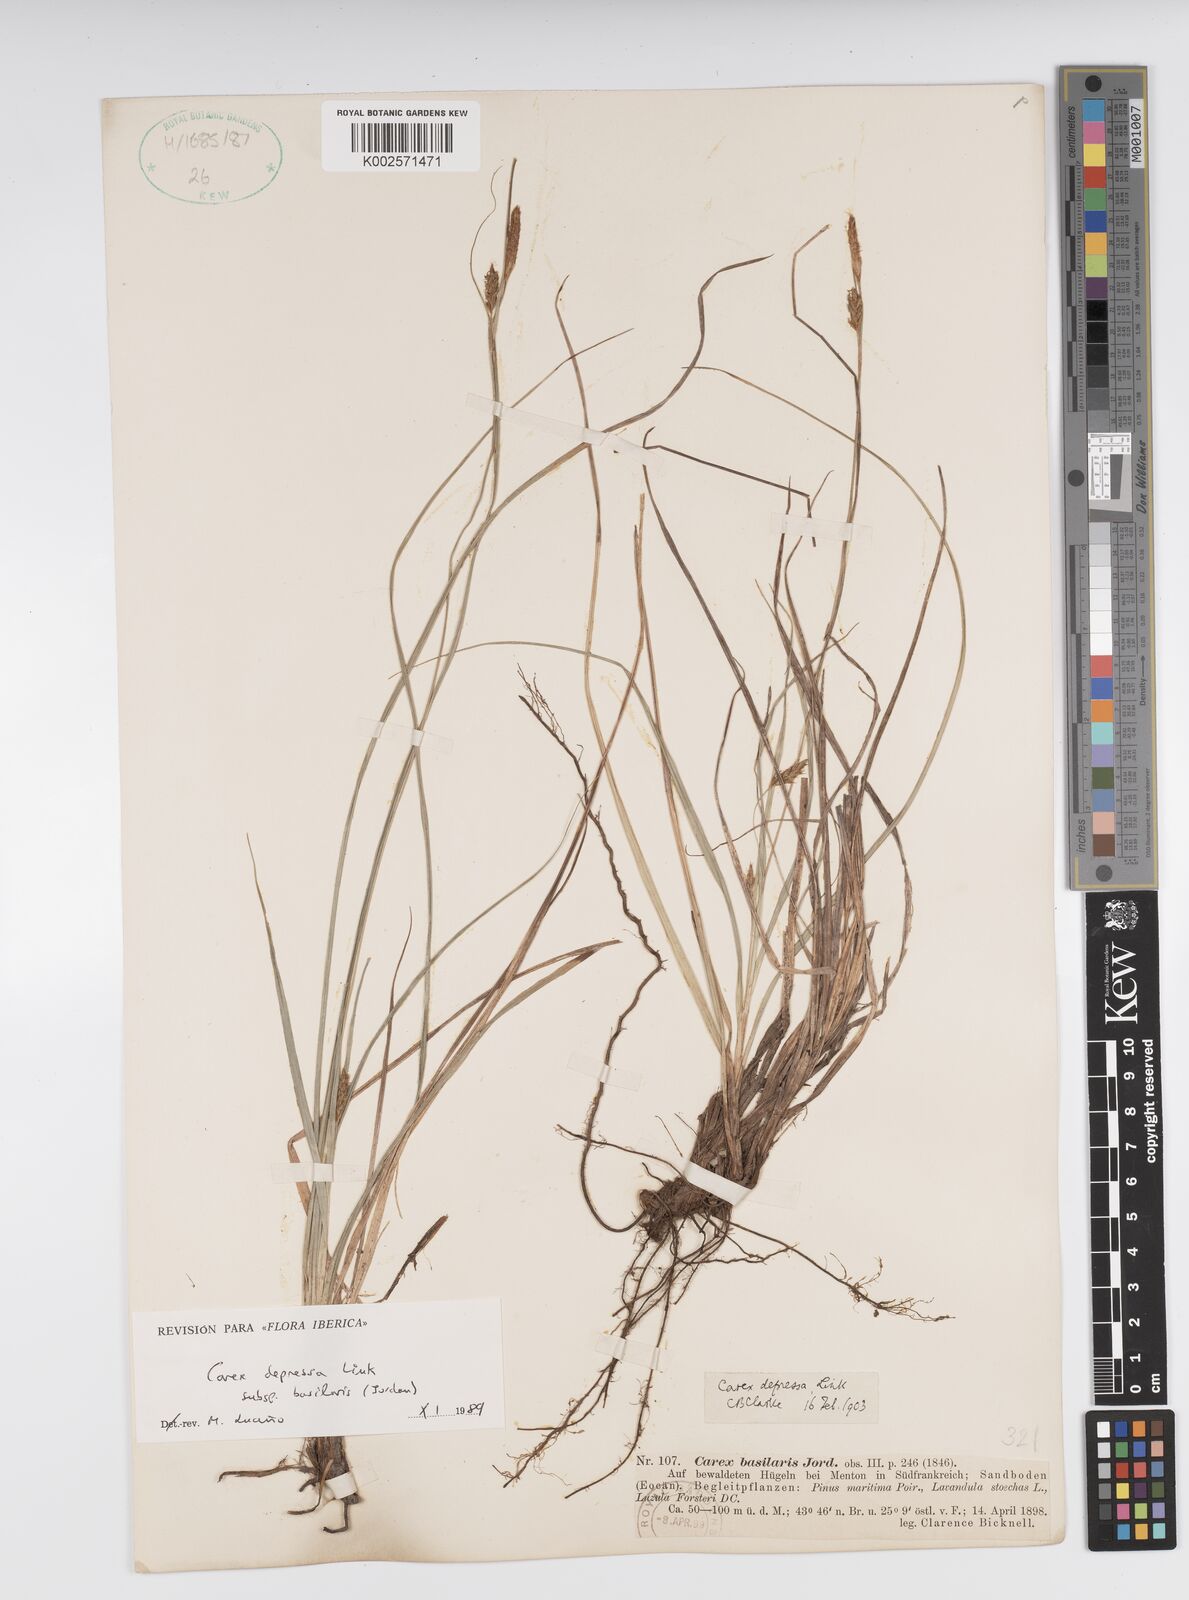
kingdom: Plantae
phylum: Tracheophyta
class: Liliopsida
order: Poales
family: Cyperaceae
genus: Carex
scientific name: Carex depressa
